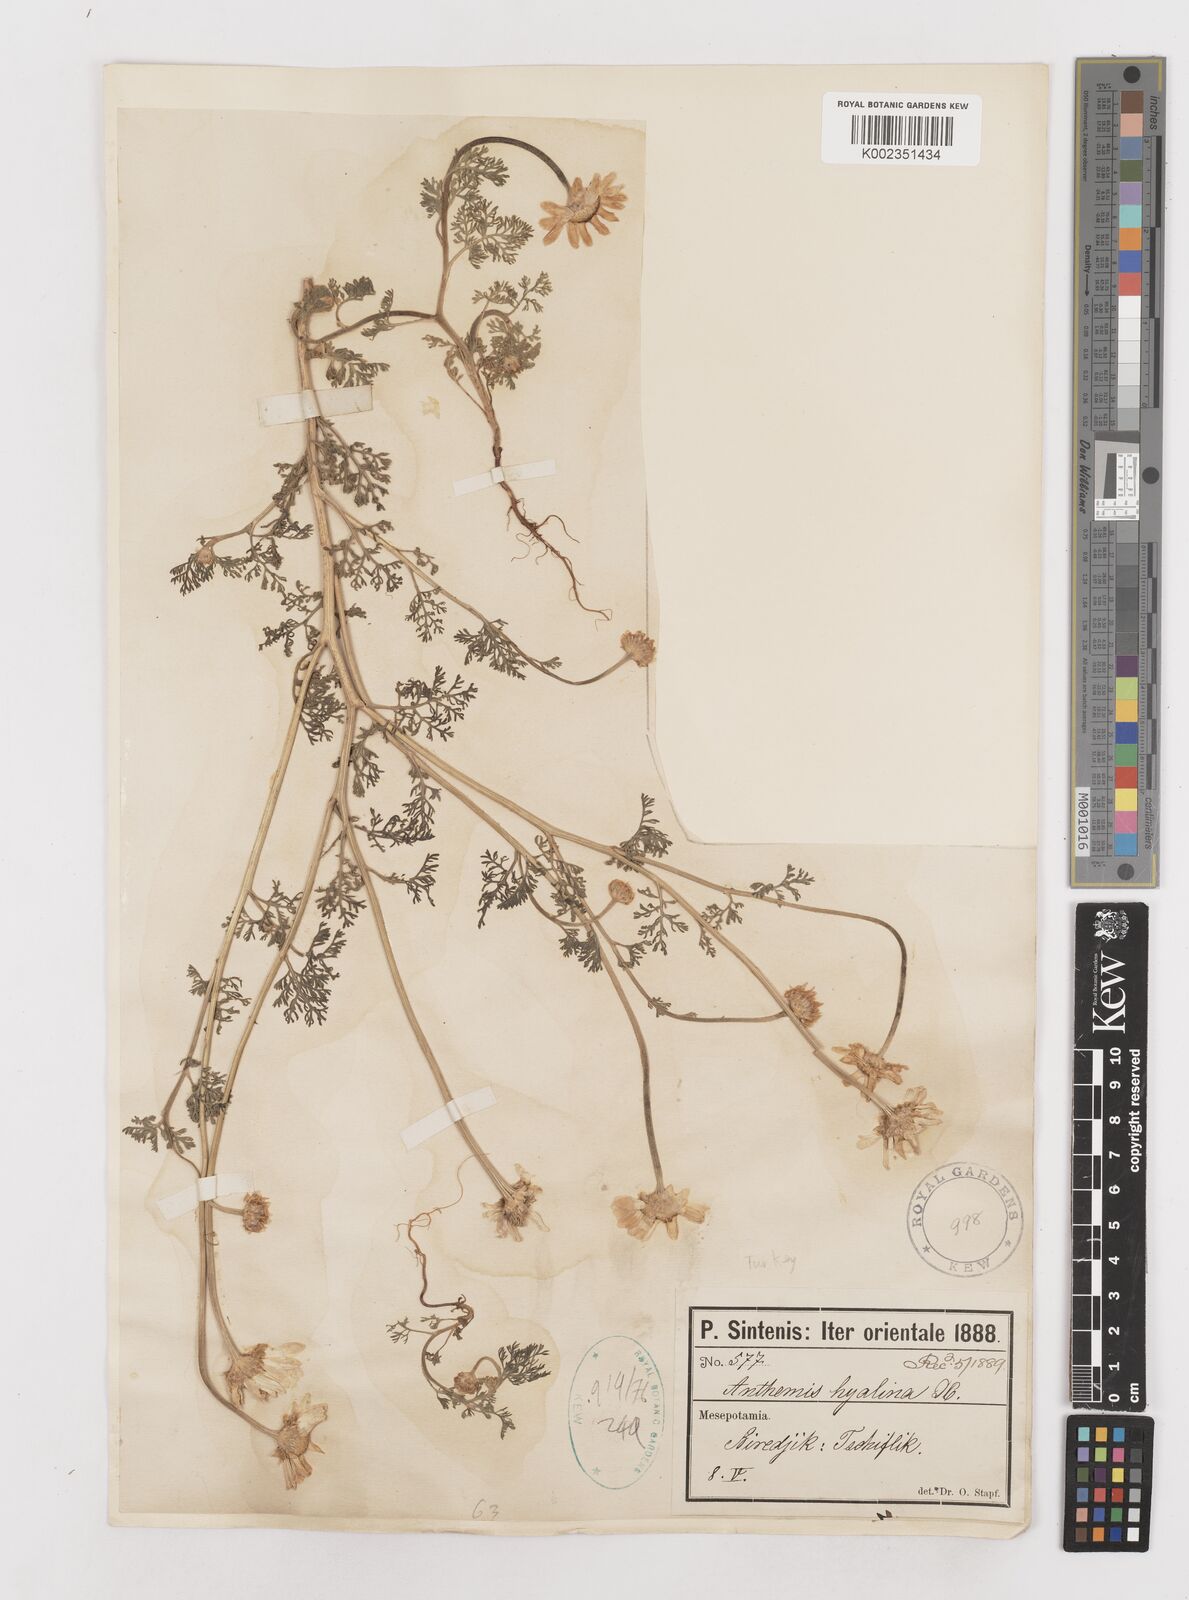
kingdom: Plantae
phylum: Tracheophyta
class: Magnoliopsida
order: Asterales
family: Asteraceae
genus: Anthemis
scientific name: Anthemis hyalina
